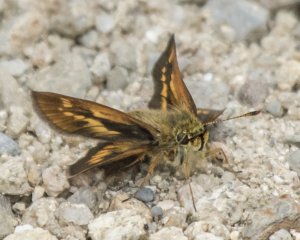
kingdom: Animalia
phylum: Arthropoda
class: Insecta
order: Lepidoptera
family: Hesperiidae
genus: Polites
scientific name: Polites
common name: Long Dash Skipper
